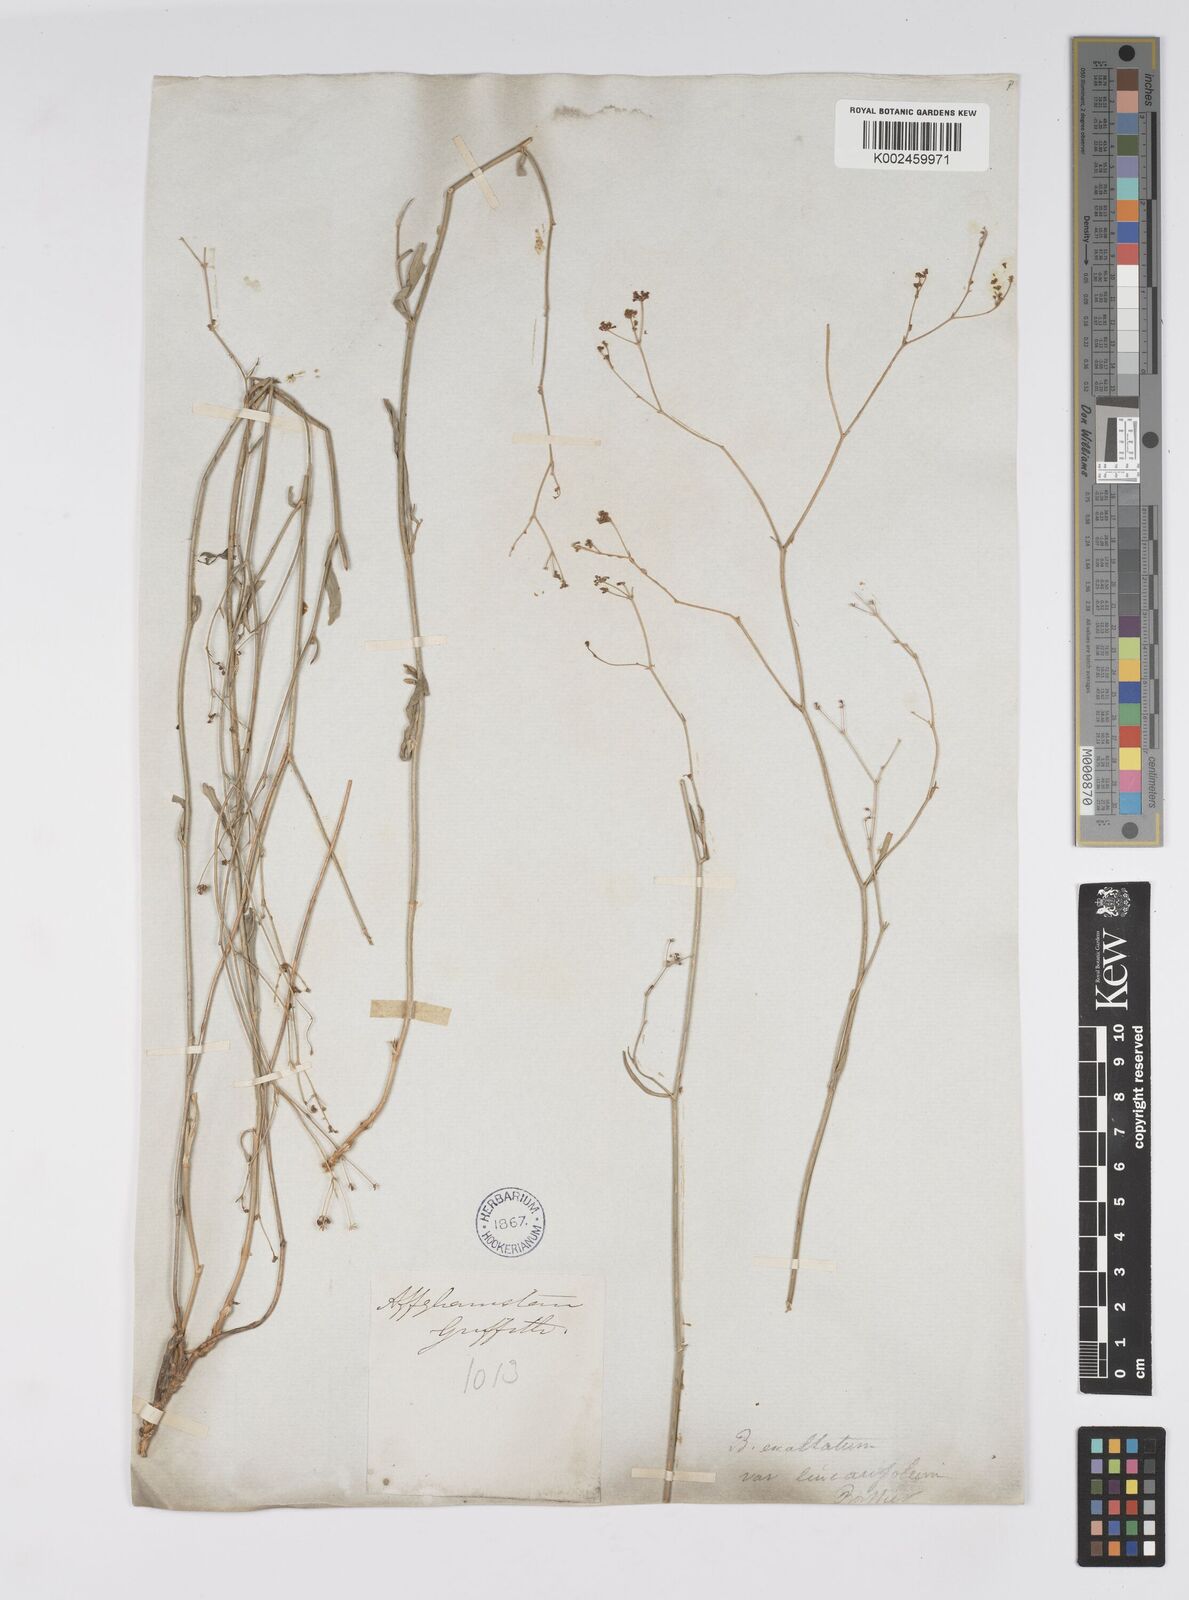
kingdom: Plantae
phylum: Tracheophyta
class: Magnoliopsida
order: Apiales
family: Apiaceae
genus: Bupleurum
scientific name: Bupleurum falcatum
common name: Sickle-leaved hare's-ear
